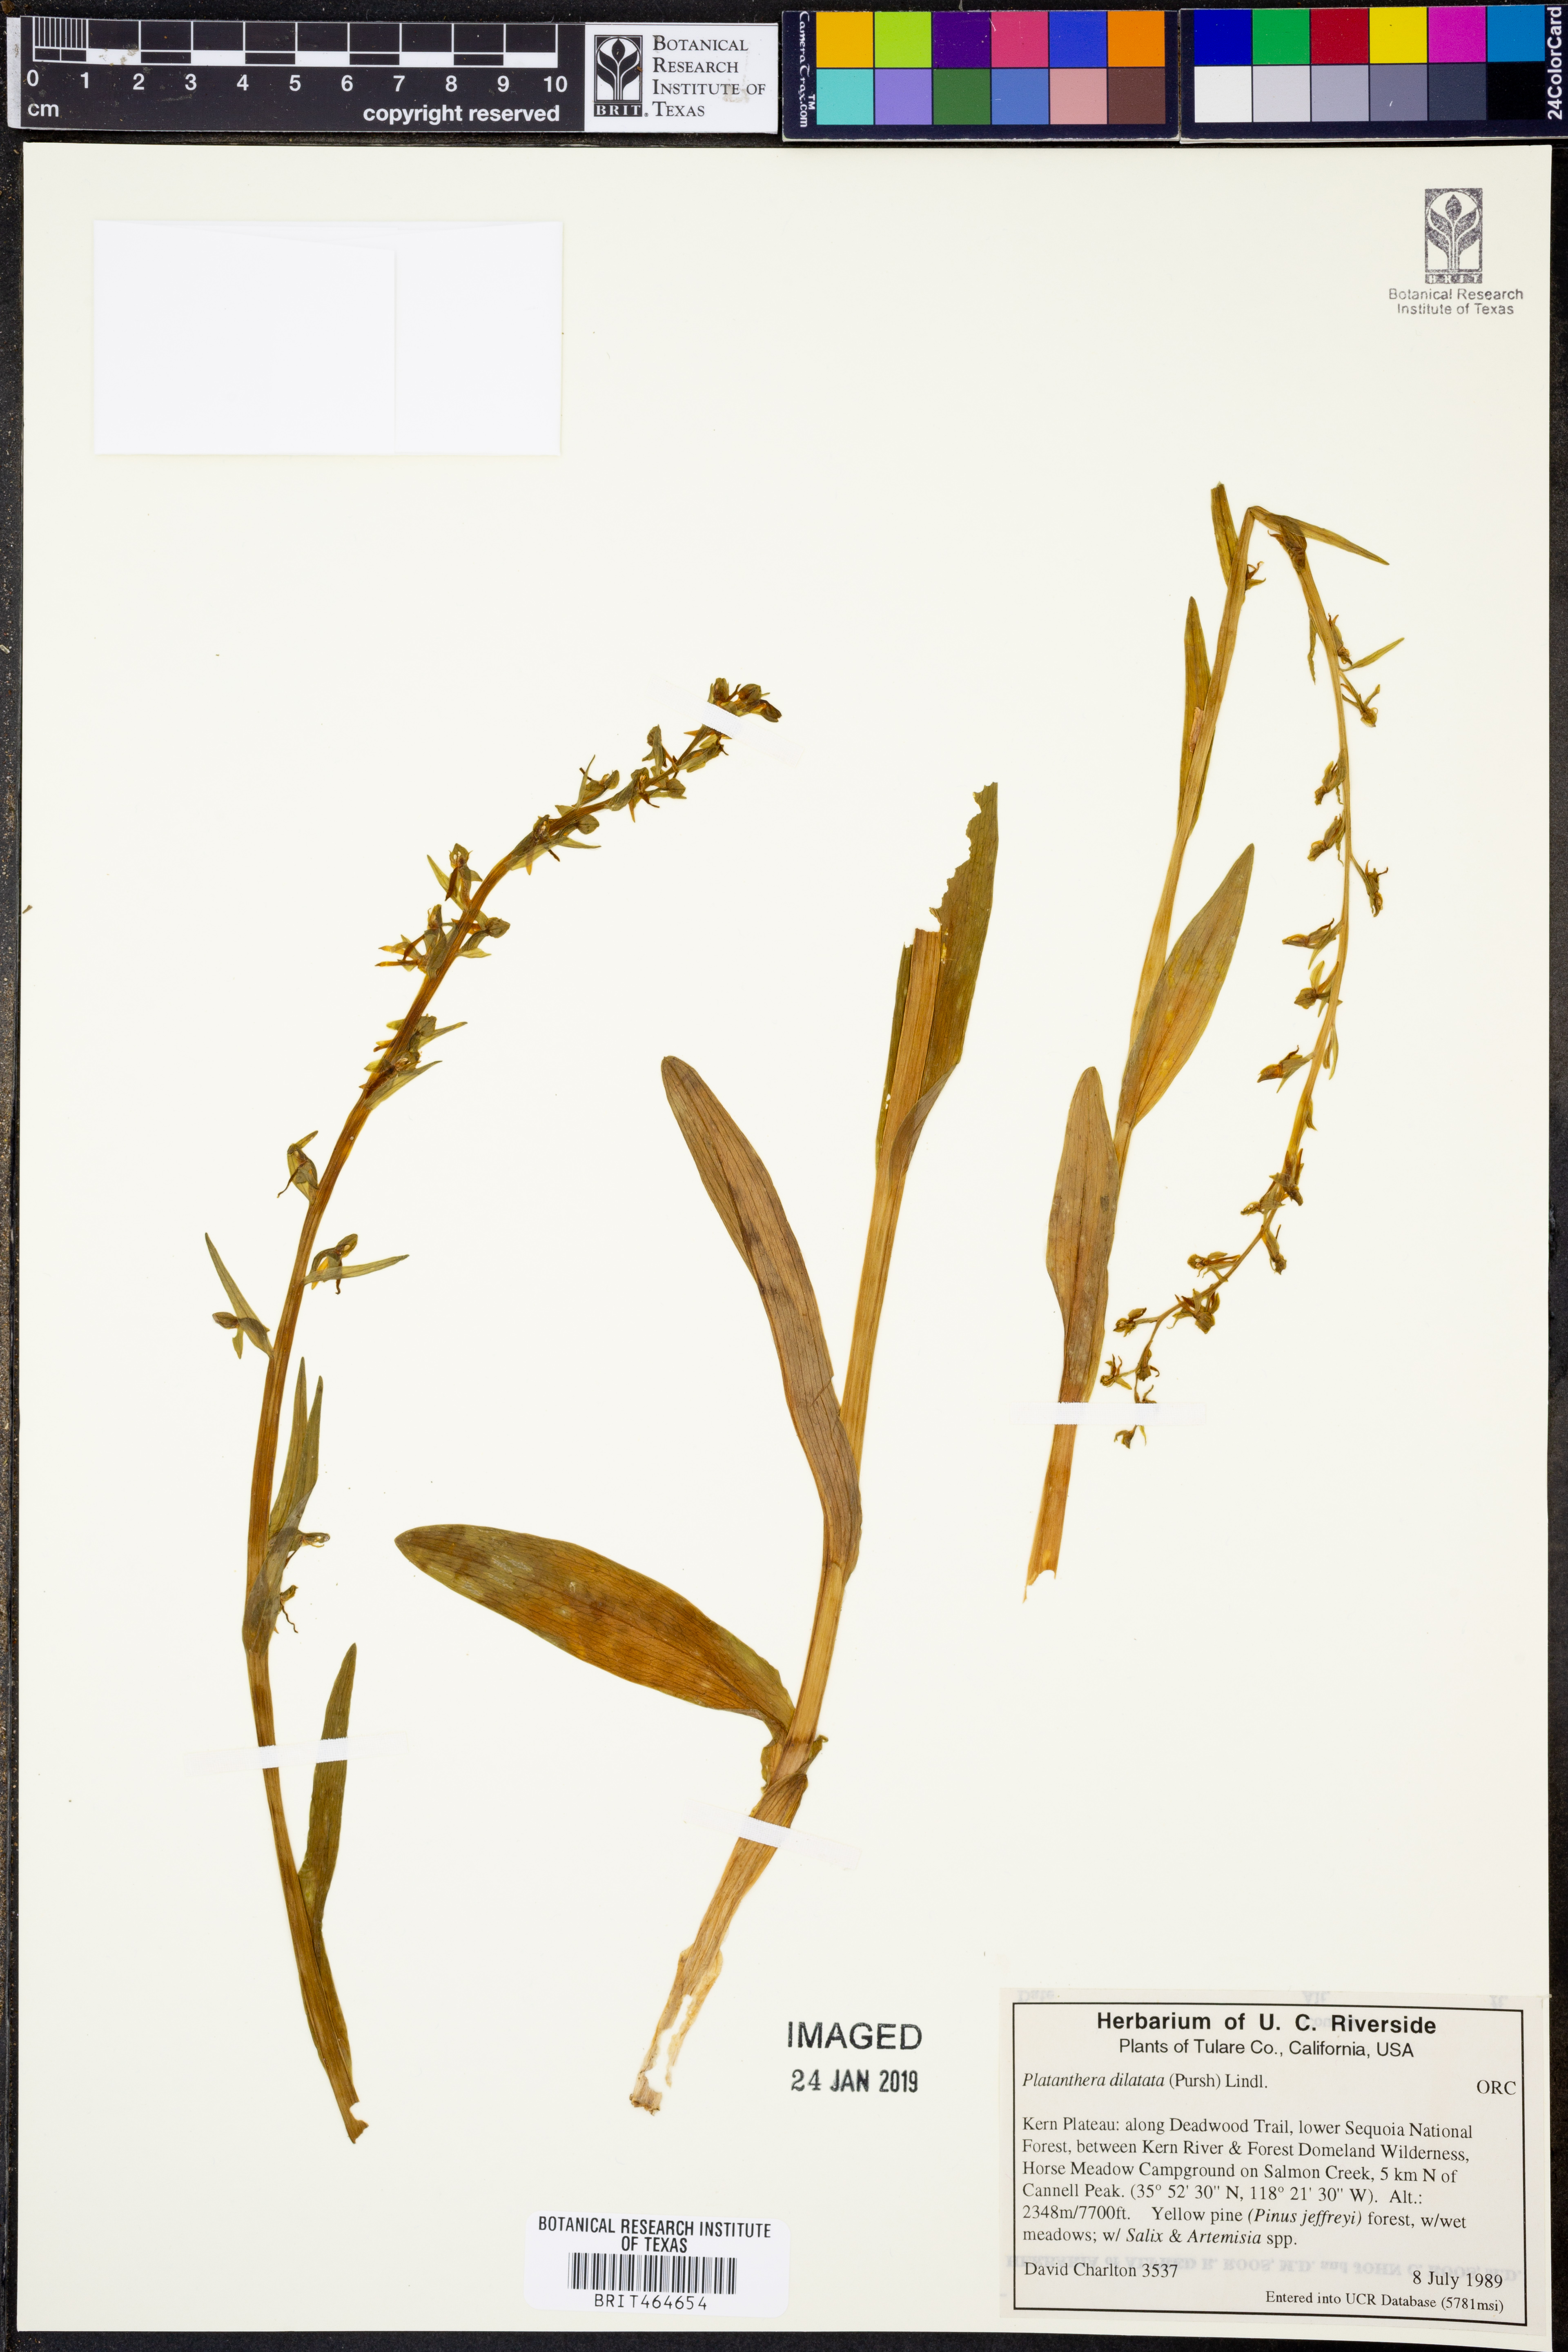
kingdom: Plantae
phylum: Tracheophyta
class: Liliopsida
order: Asparagales
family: Orchidaceae
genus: Platanthera
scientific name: Platanthera dilatata
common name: Bog candles
